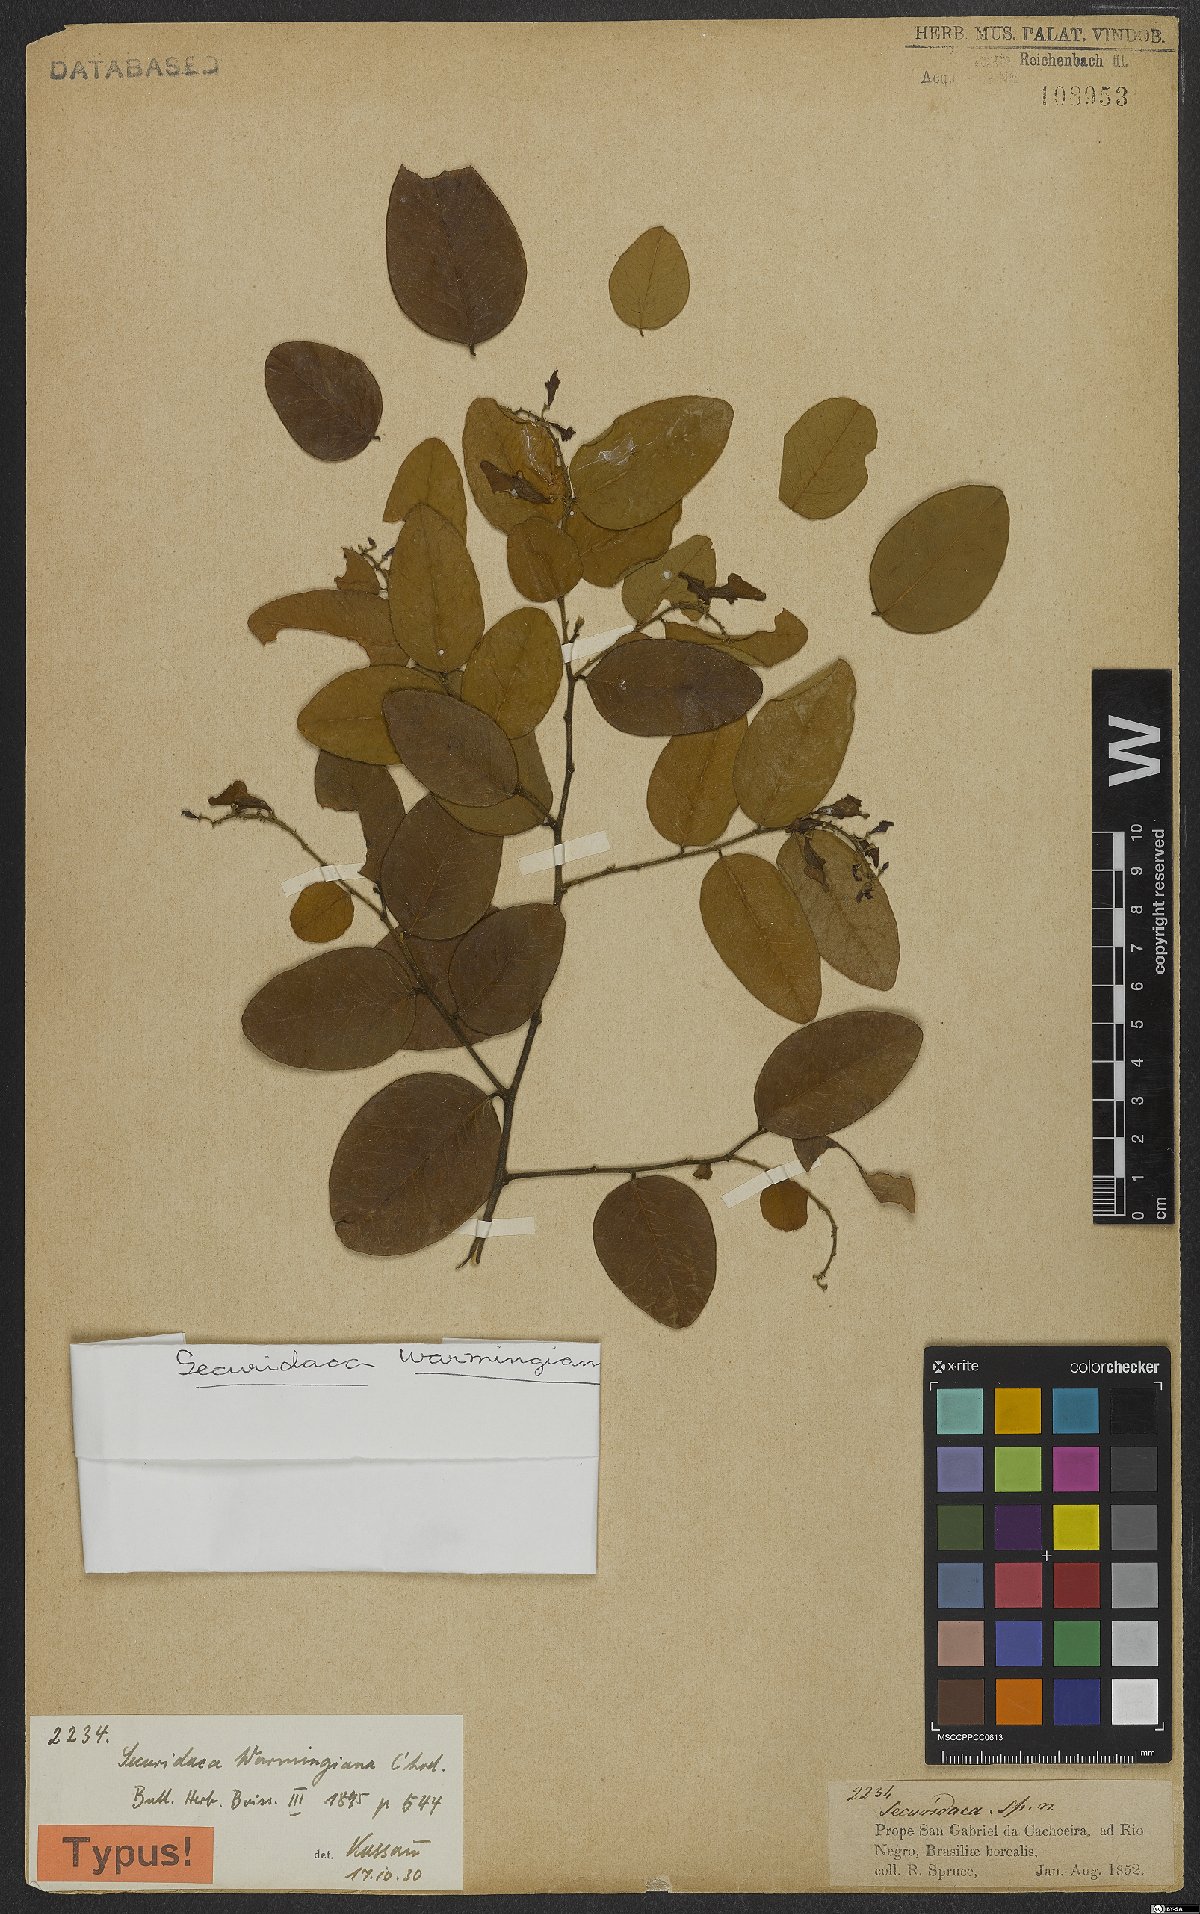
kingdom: Plantae
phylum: Tracheophyta
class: Magnoliopsida
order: Fabales
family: Polygalaceae
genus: Securidaca
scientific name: Securidaca warmingiana
